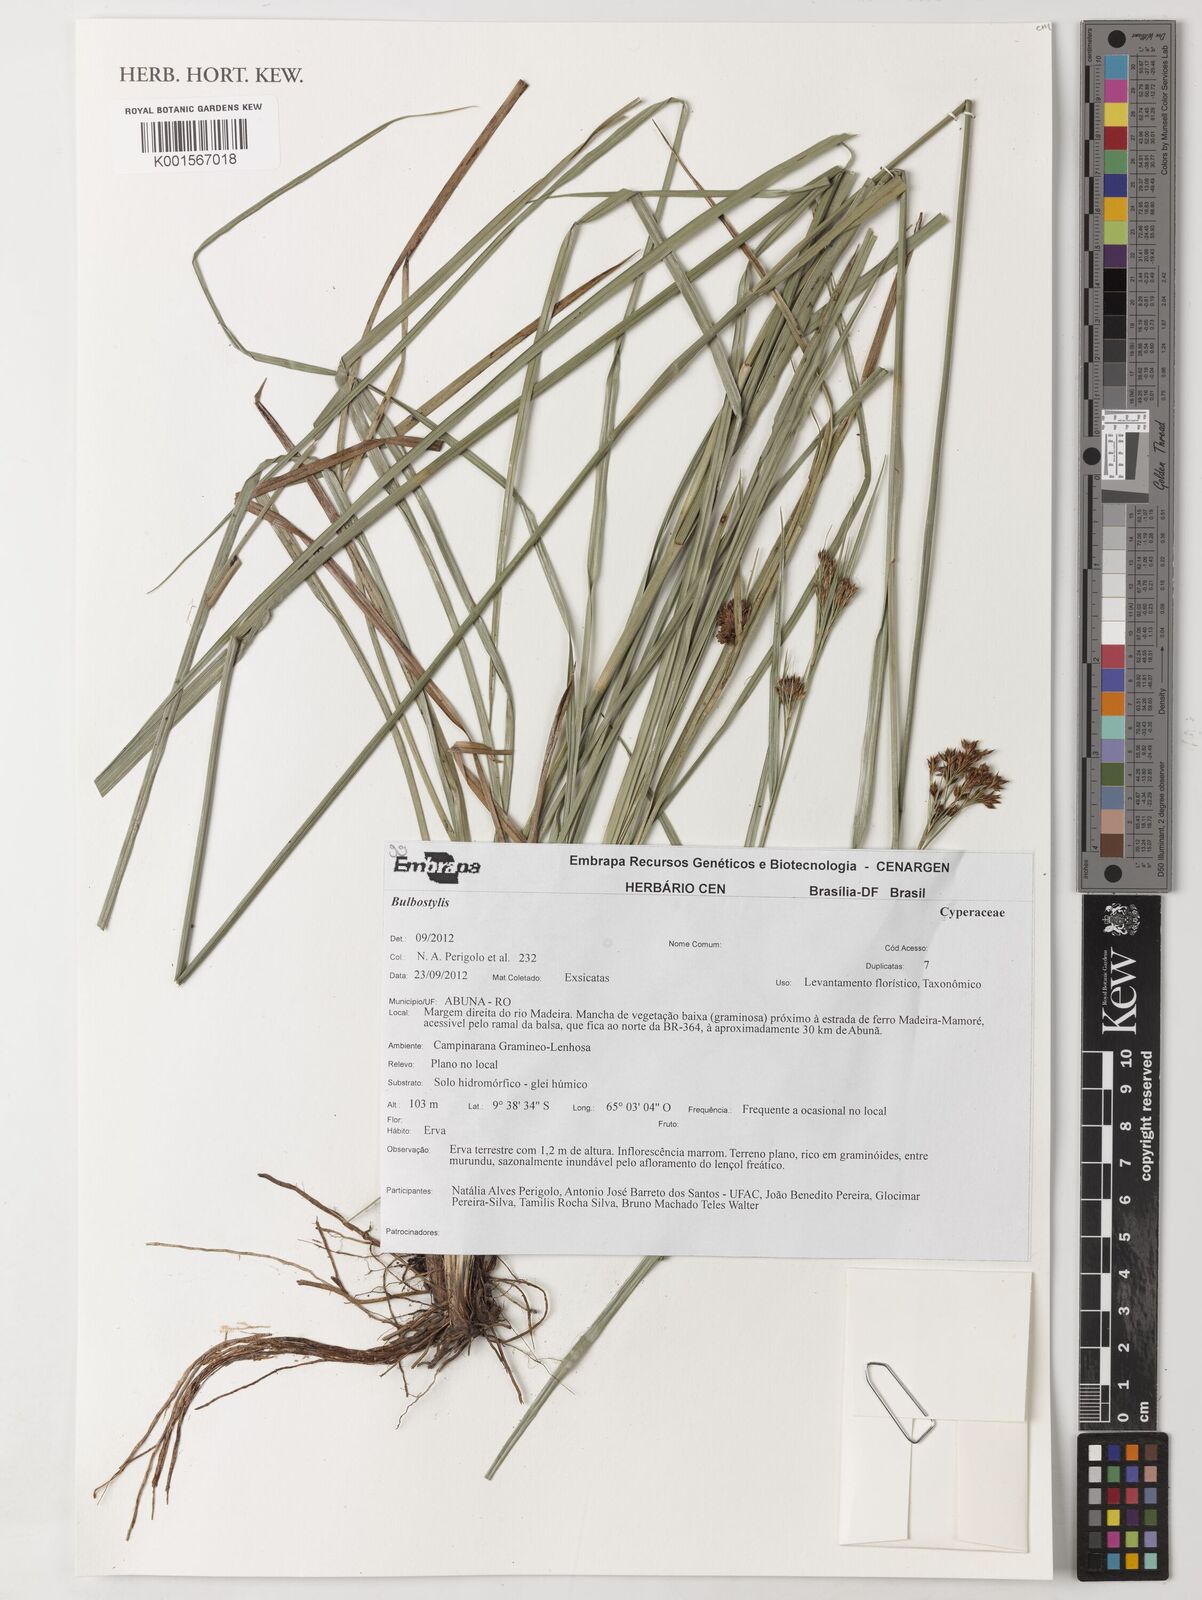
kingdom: Plantae
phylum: Tracheophyta
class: Liliopsida
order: Poales
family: Cyperaceae
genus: Bulbostylis
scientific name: Bulbostylis
